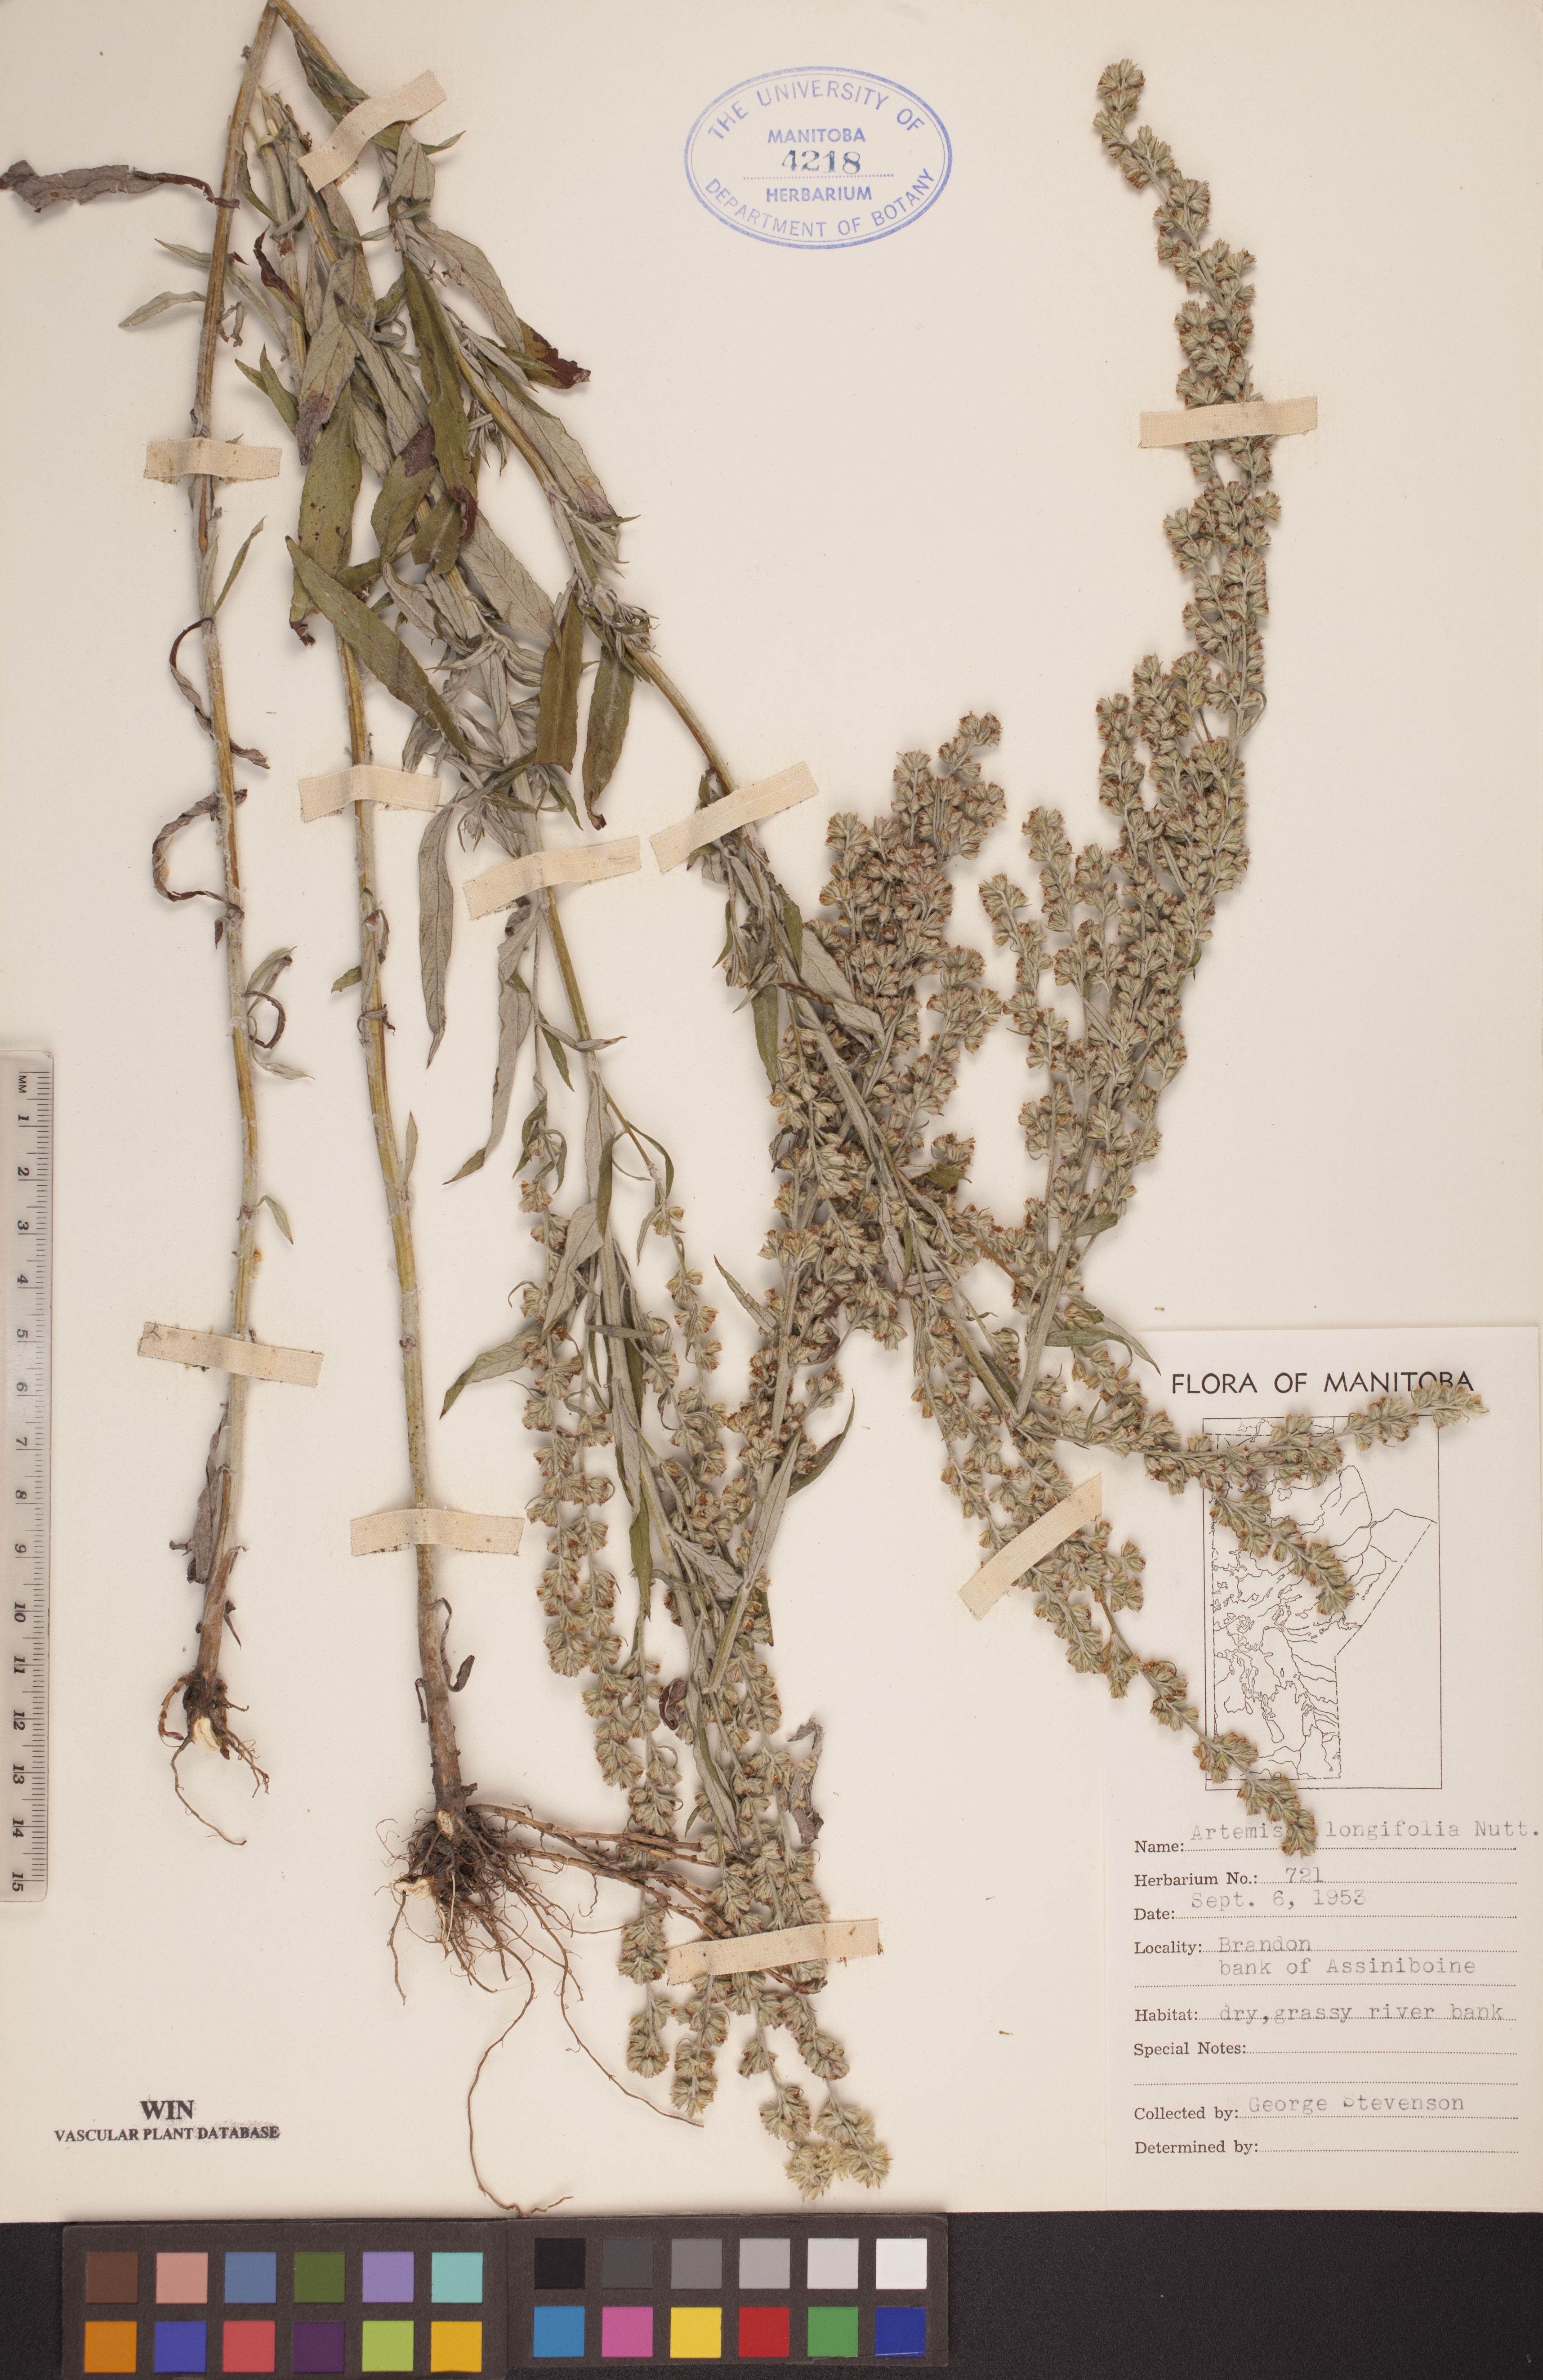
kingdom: Plantae
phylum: Tracheophyta
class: Magnoliopsida
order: Asterales
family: Asteraceae
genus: Artemisia
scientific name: Artemisia longifolia
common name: Long-leaved mugwort
